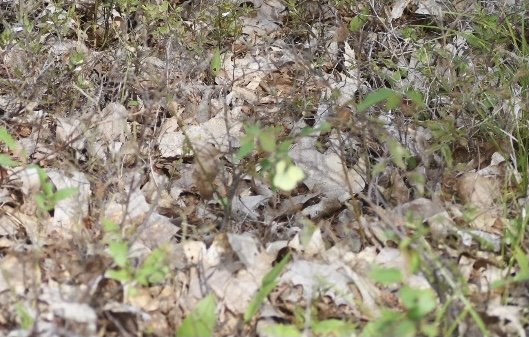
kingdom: Animalia
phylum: Arthropoda
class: Insecta
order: Lepidoptera
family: Pieridae
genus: Colias
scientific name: Colias
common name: Clouded Yellows
